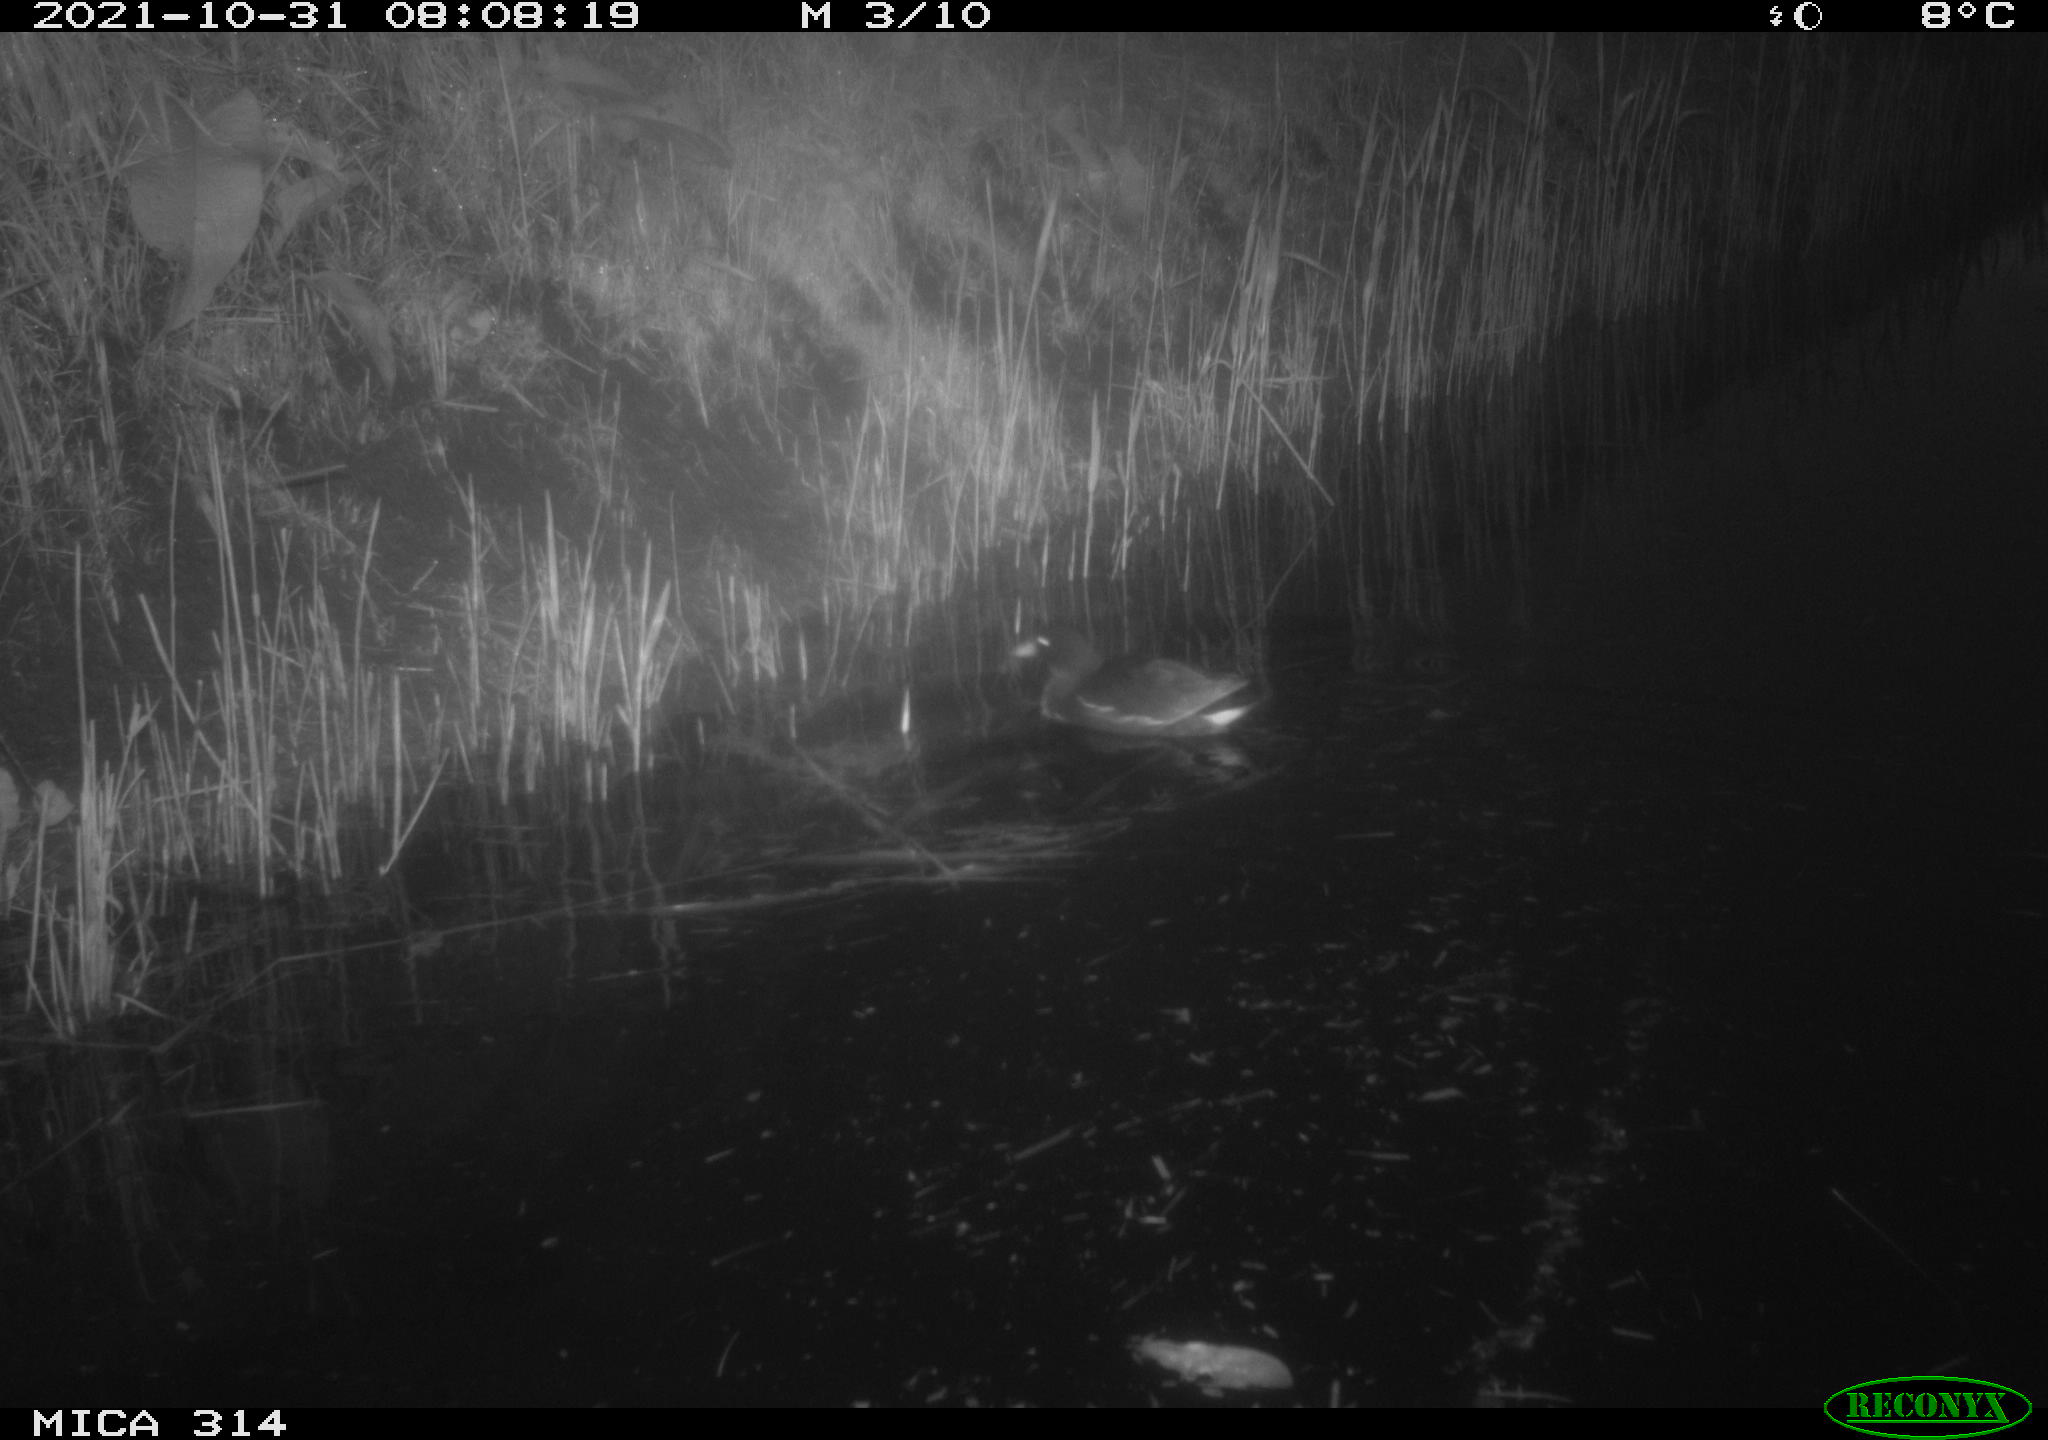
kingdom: Animalia
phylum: Chordata
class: Aves
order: Gruiformes
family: Rallidae
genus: Gallinula
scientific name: Gallinula chloropus
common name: Common moorhen
